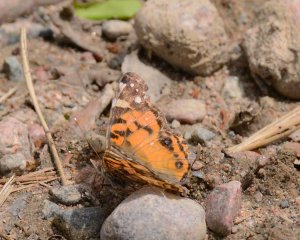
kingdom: Animalia
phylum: Arthropoda
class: Insecta
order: Lepidoptera
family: Nymphalidae
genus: Vanessa
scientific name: Vanessa virginiensis
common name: American Lady
